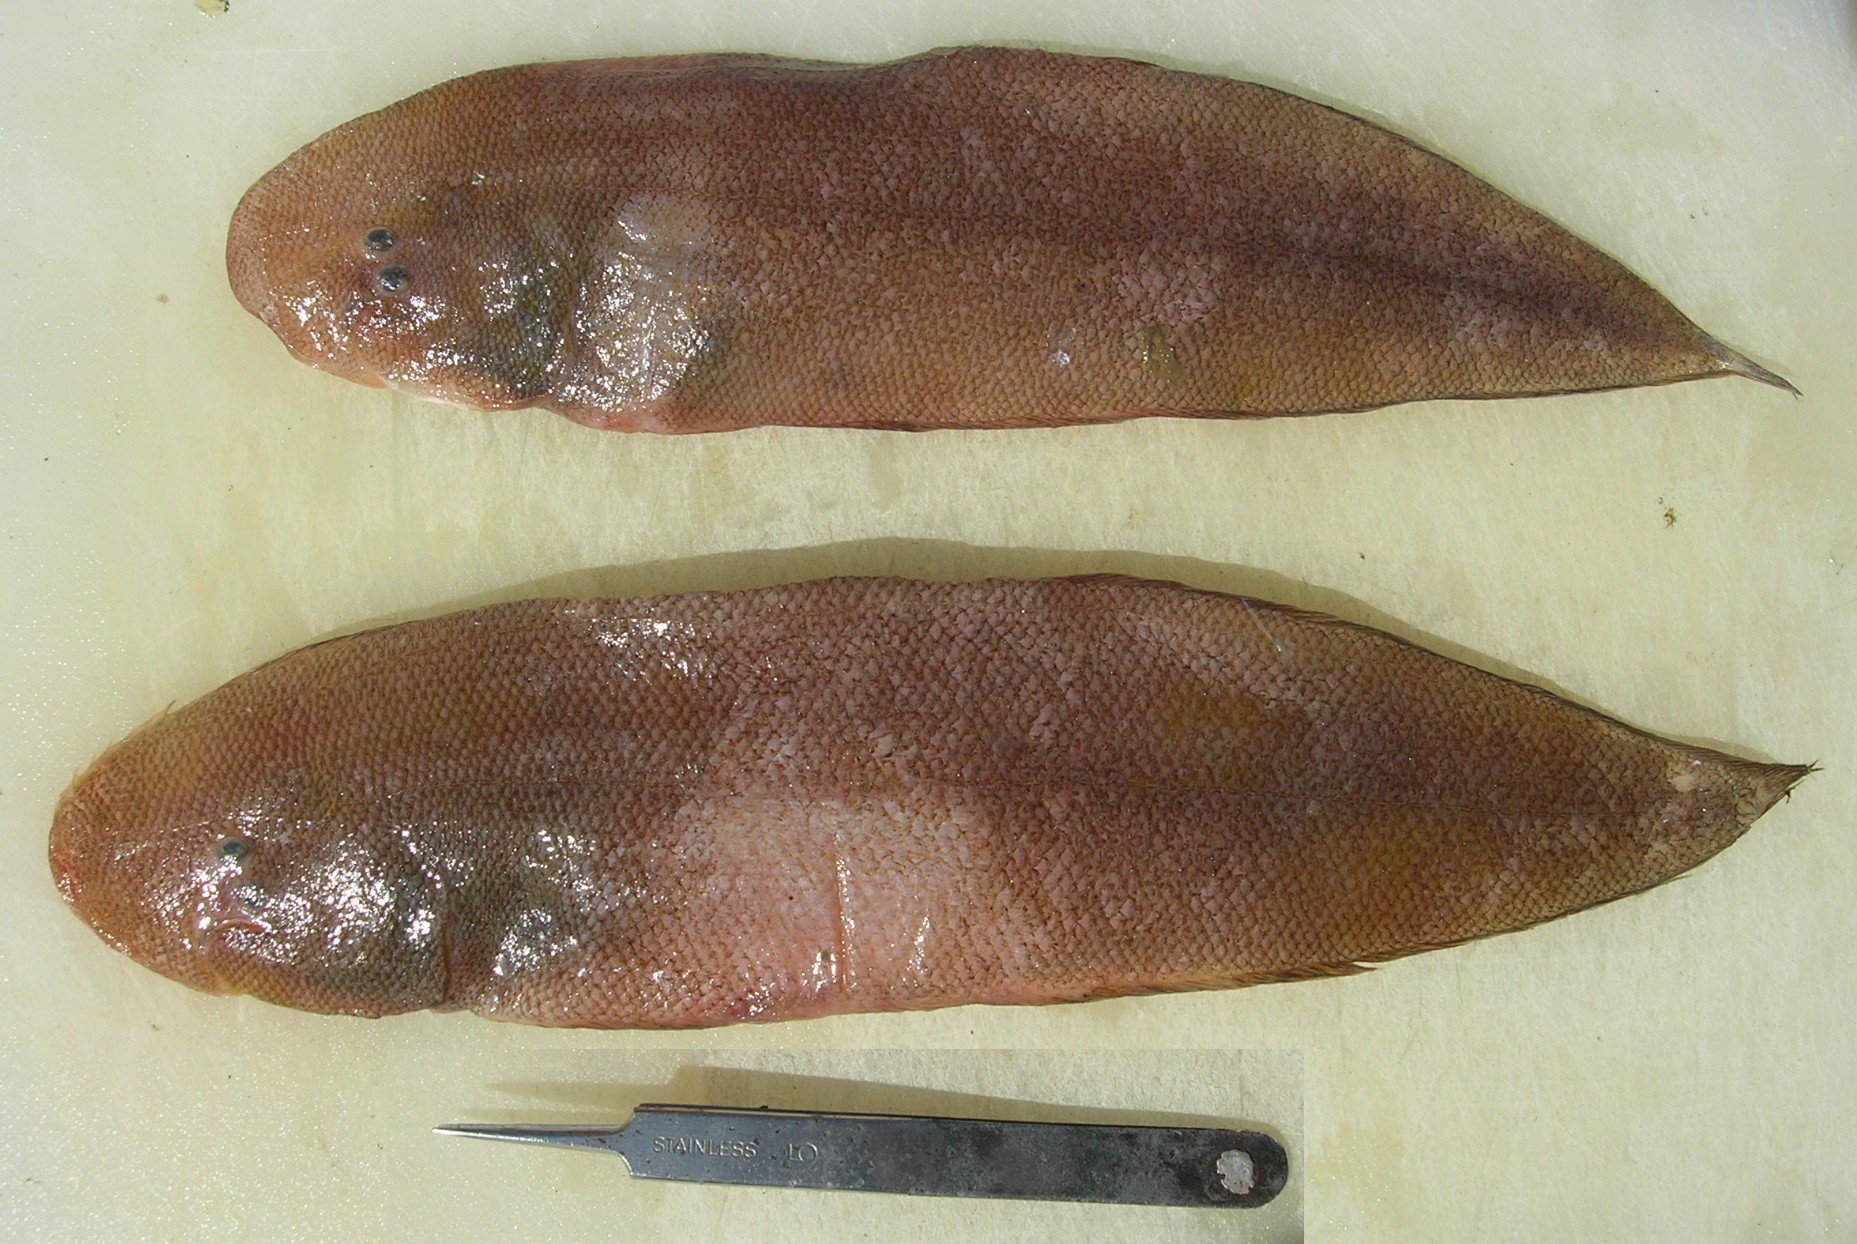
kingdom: Animalia
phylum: Chordata
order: Pleuronectiformes
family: Cynoglossidae
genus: Cynoglossus
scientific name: Cynoglossus lida
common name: Roughscale tonguesole
